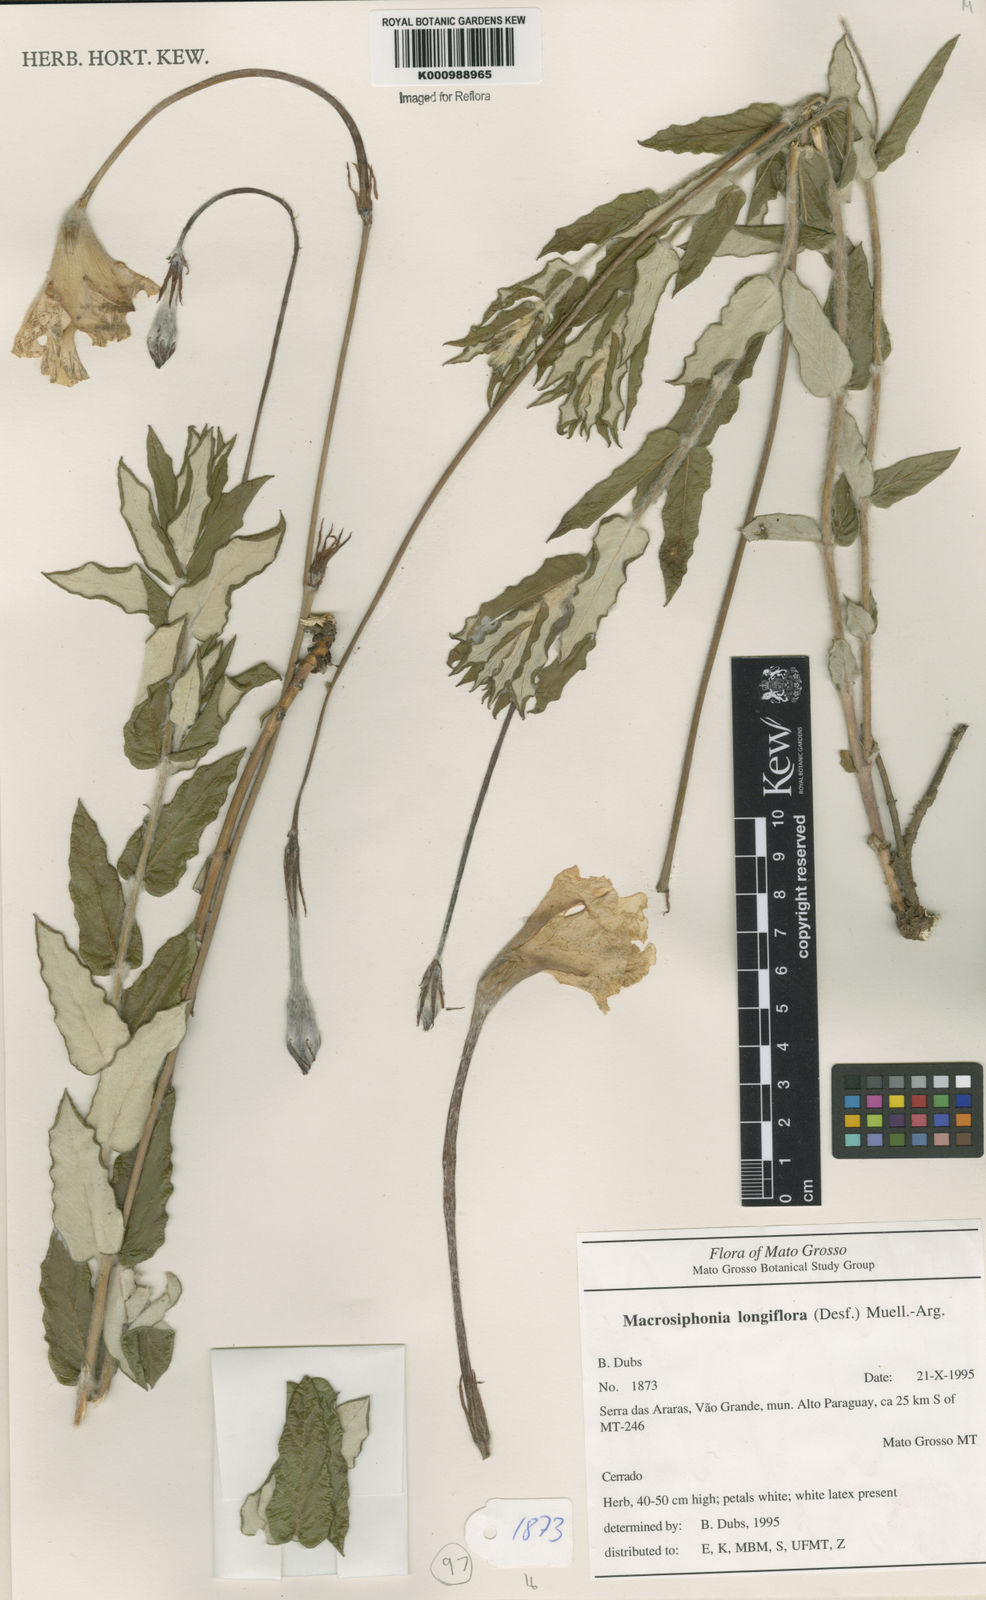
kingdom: Plantae
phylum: Tracheophyta
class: Magnoliopsida
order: Gentianales
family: Apocynaceae
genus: Mandevilla
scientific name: Mandevilla longiflora
